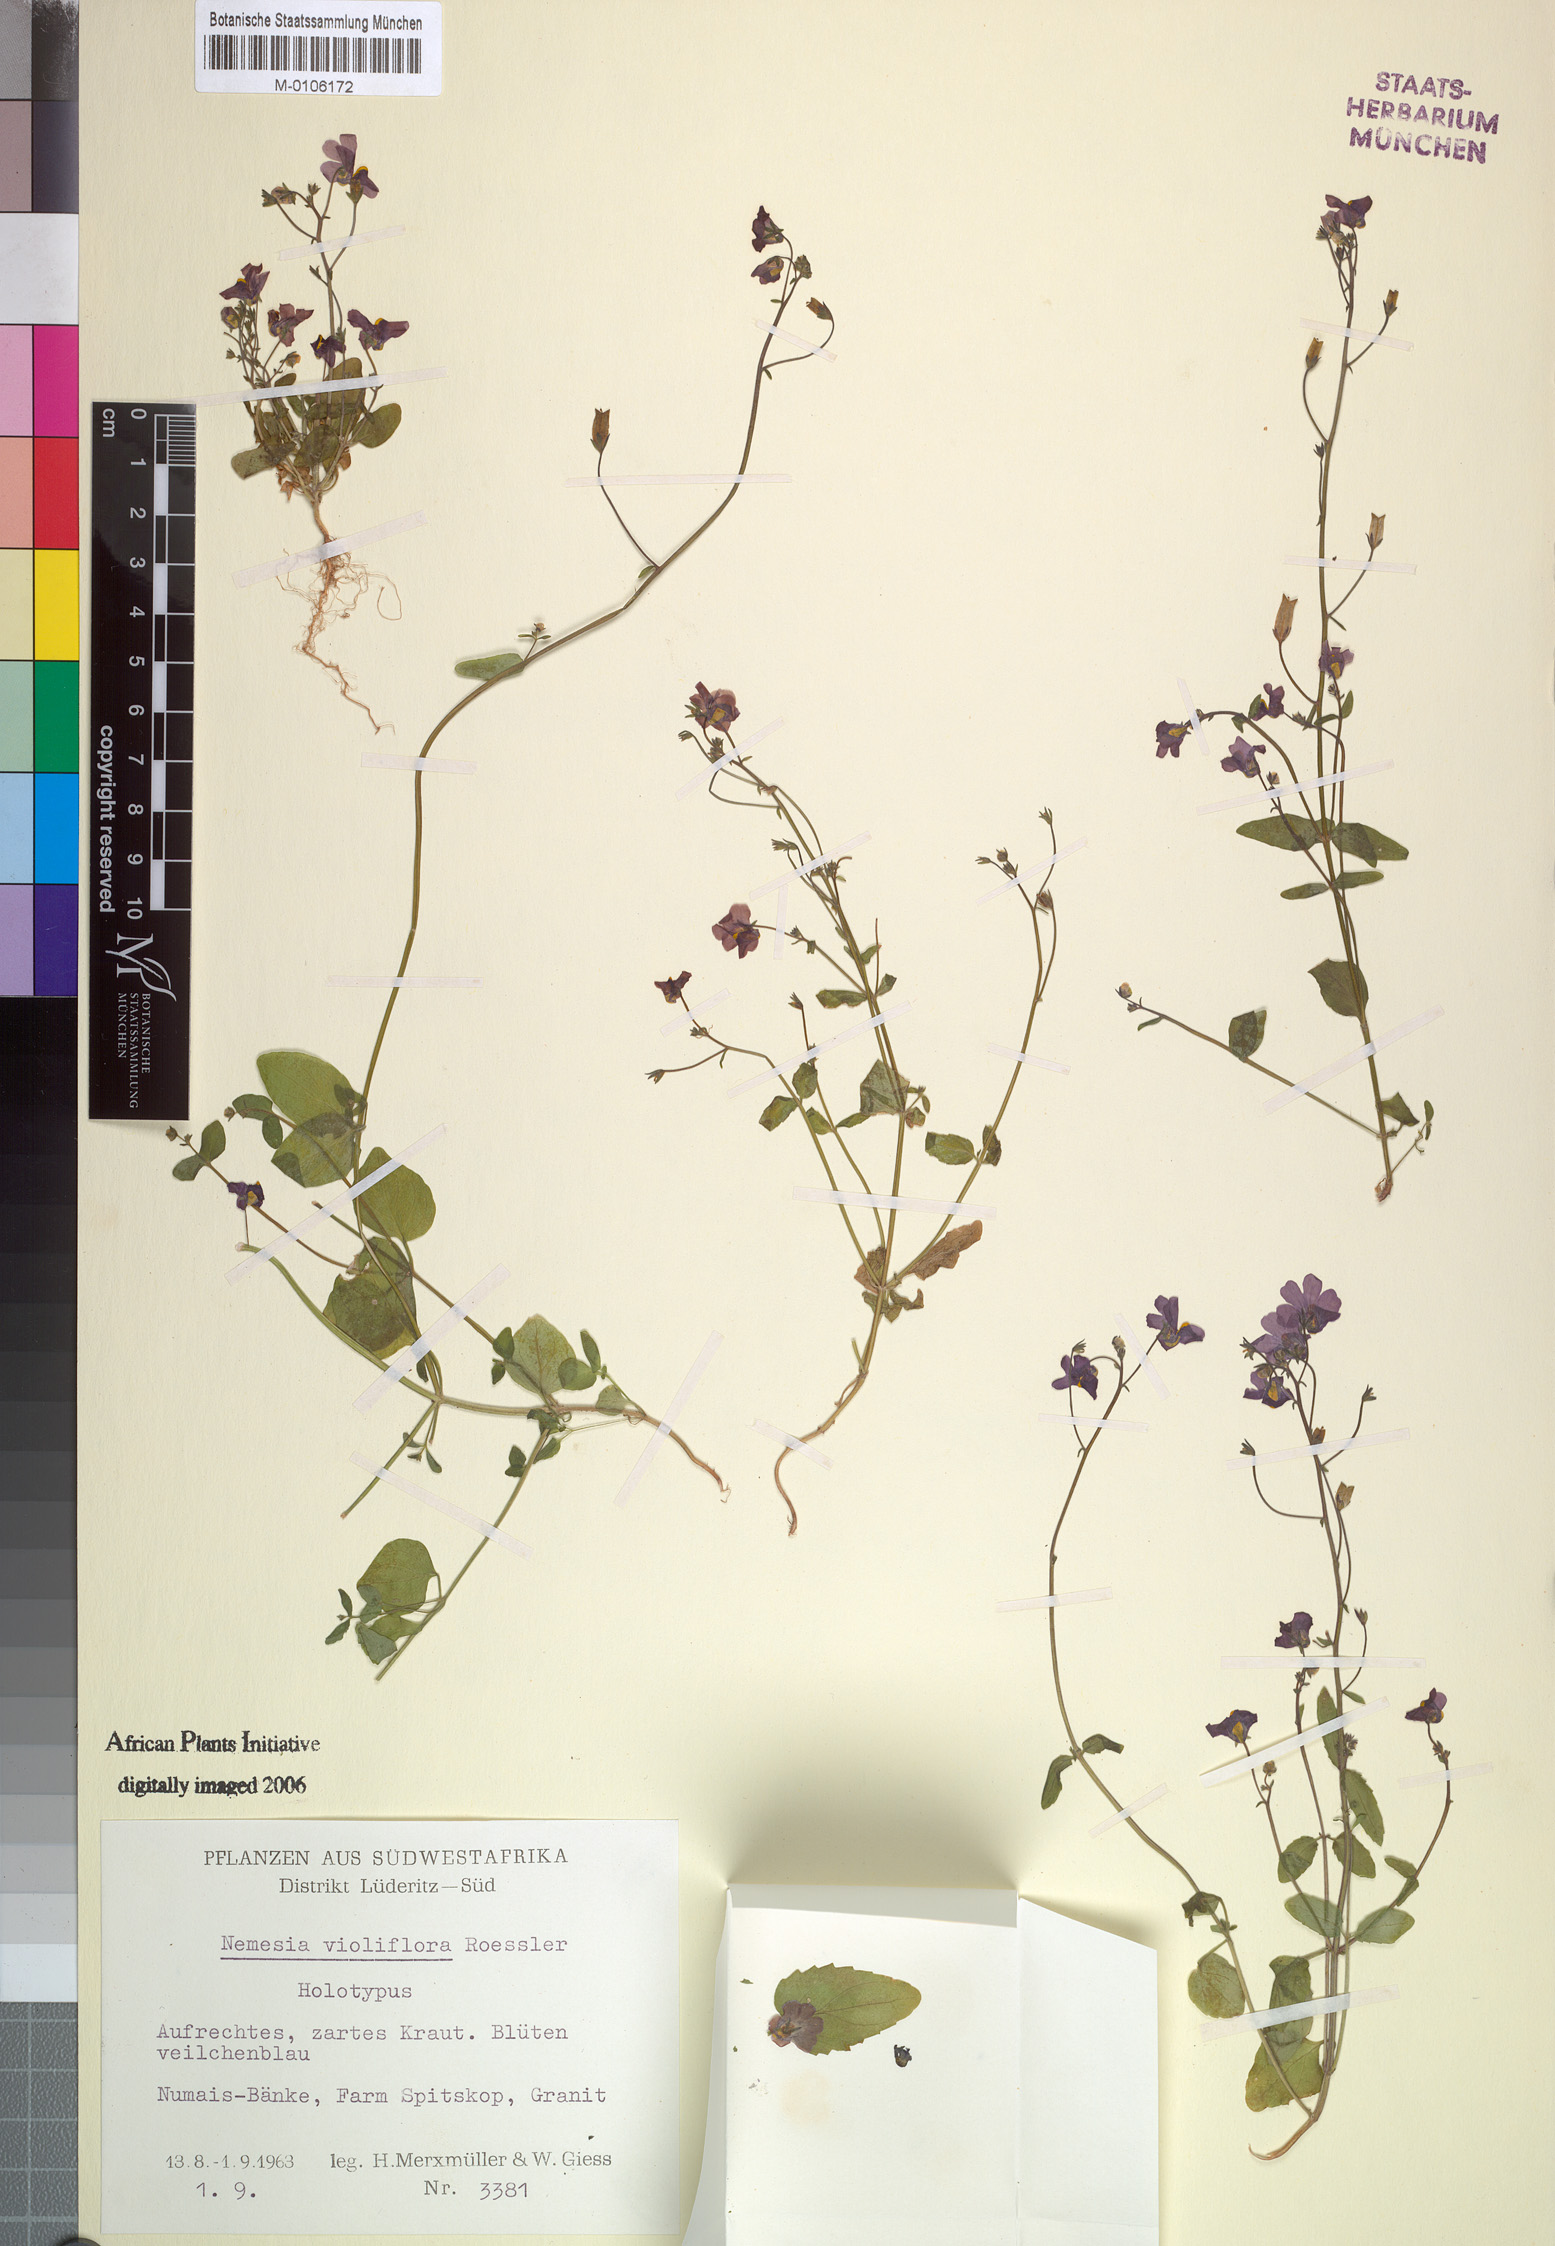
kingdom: Plantae
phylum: Tracheophyta
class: Magnoliopsida
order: Lamiales
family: Scrophulariaceae
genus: Nemesia
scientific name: Nemesia violiflora
